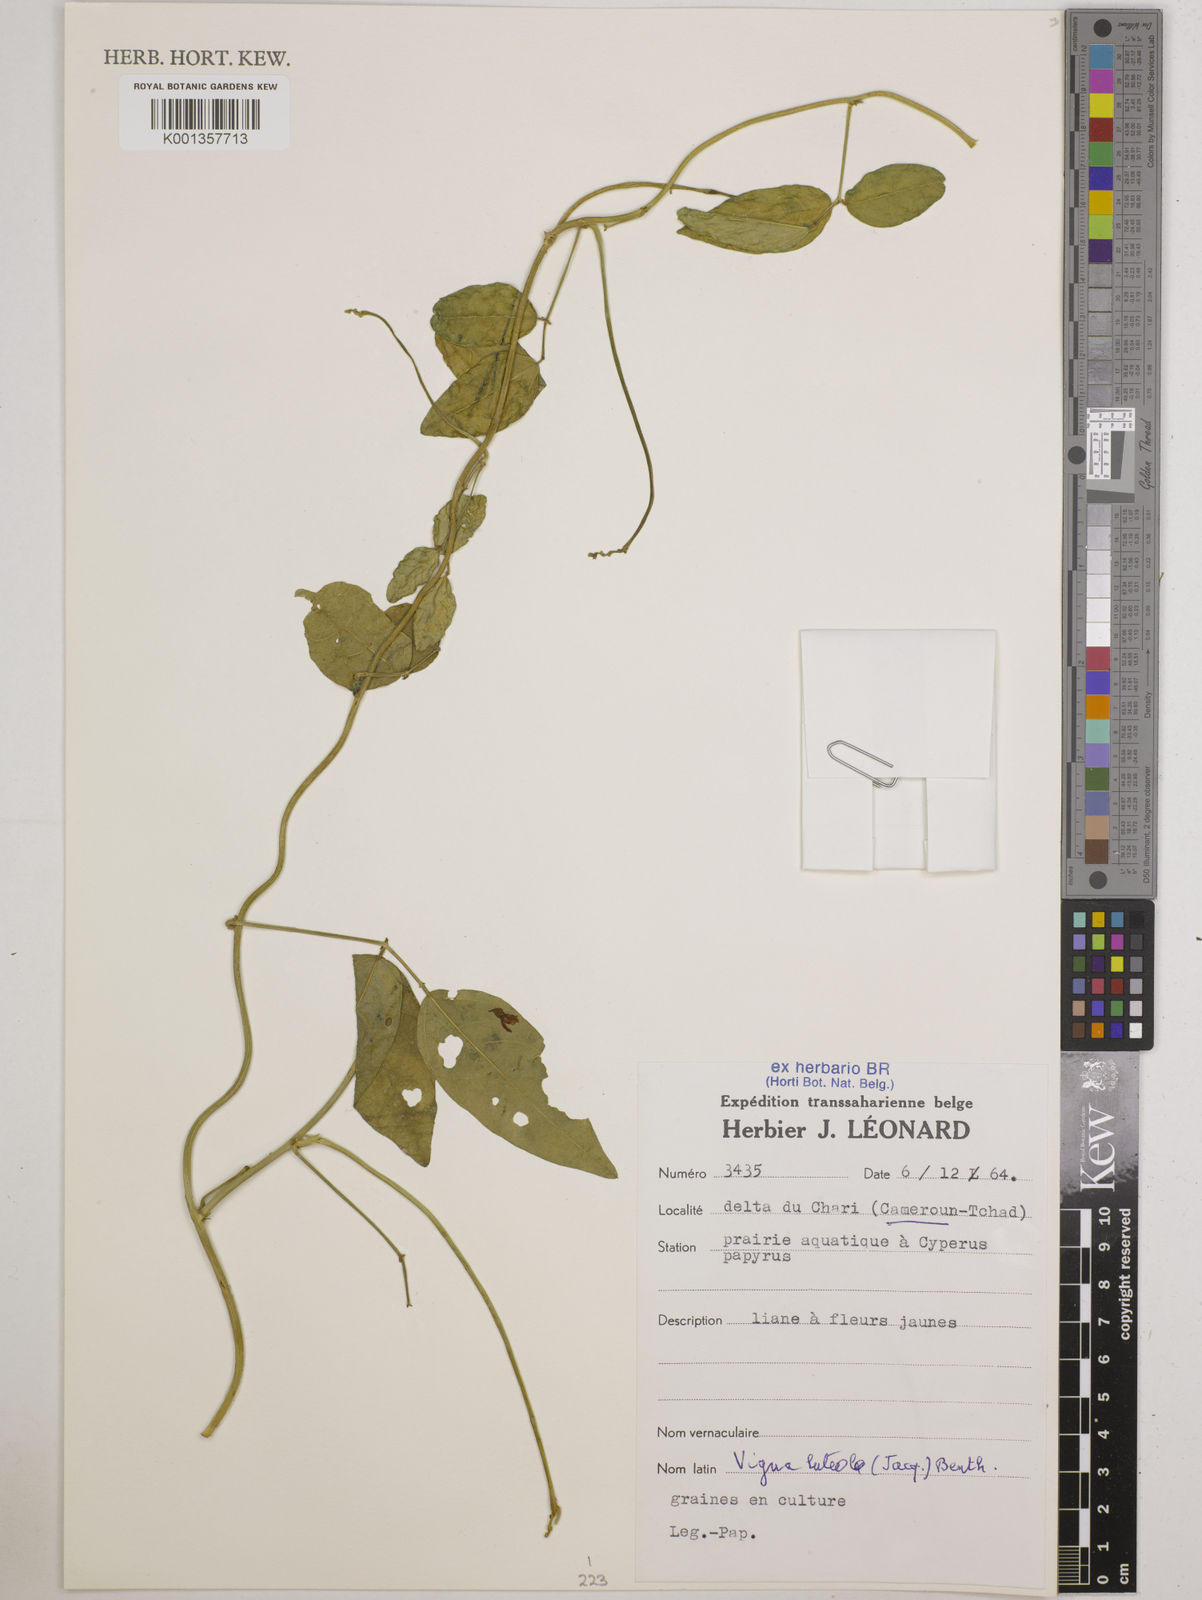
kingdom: Plantae
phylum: Tracheophyta
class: Magnoliopsida
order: Fabales
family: Fabaceae
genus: Vigna
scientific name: Vigna luteola
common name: Hairypod cowpea
